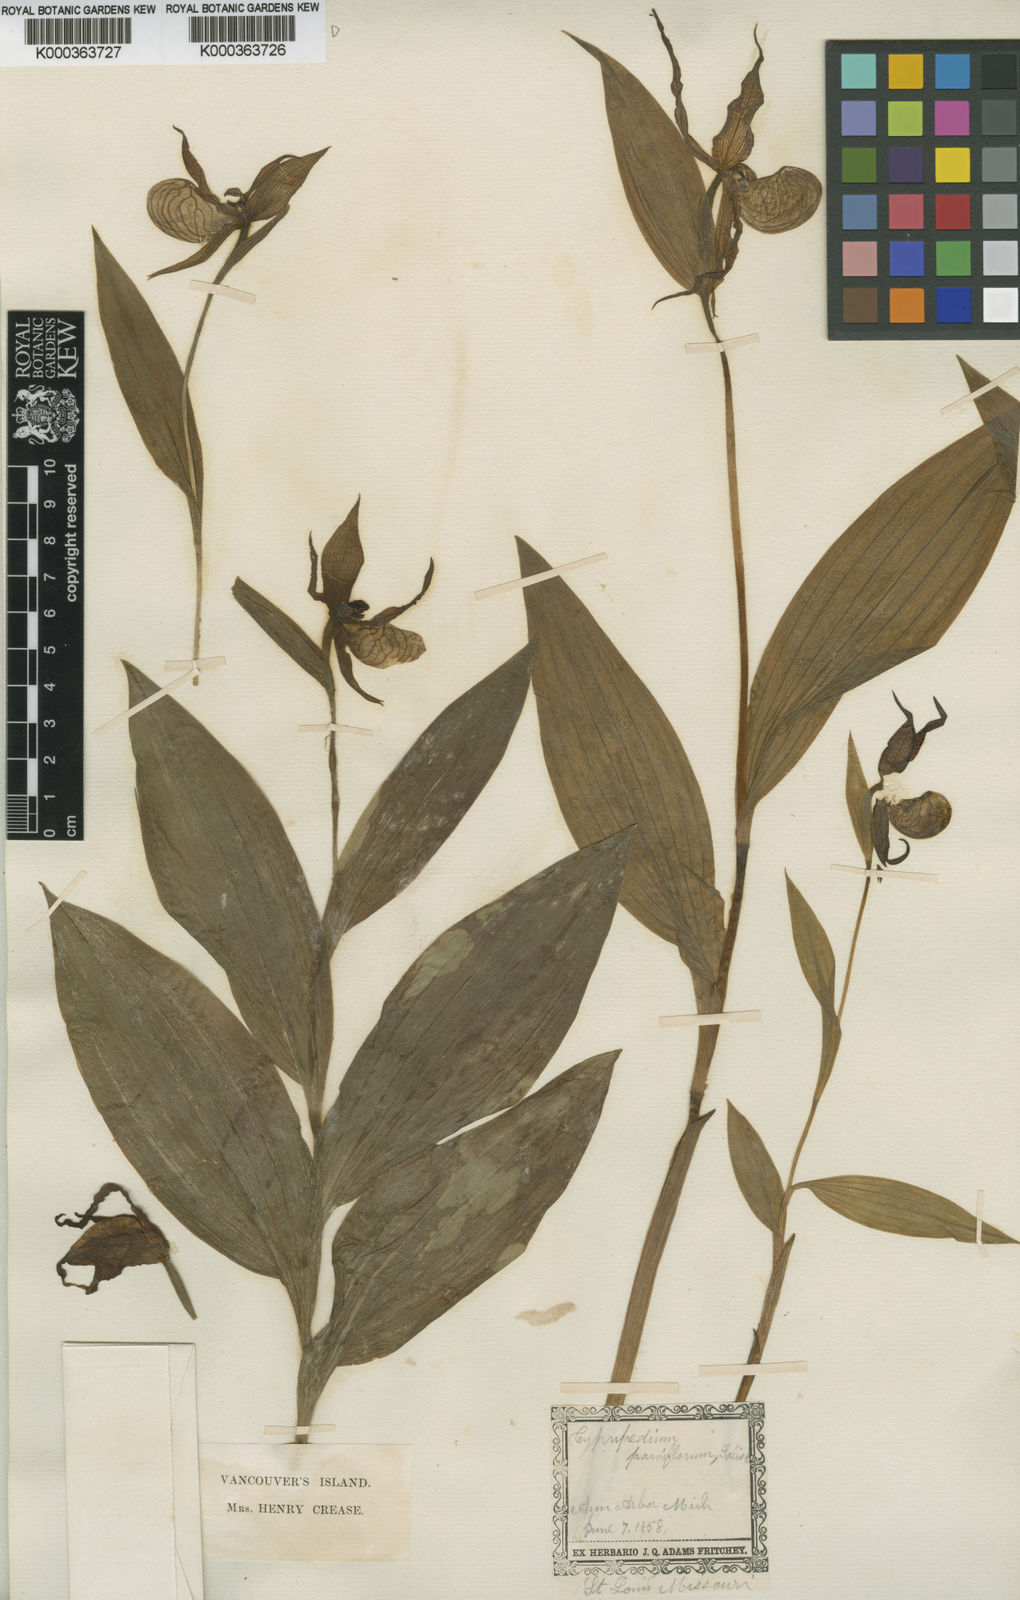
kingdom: Plantae
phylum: Tracheophyta
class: Liliopsida
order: Asparagales
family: Orchidaceae
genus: Cypripedium
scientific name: Cypripedium parviflorum
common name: American yellow lady's-slipper
